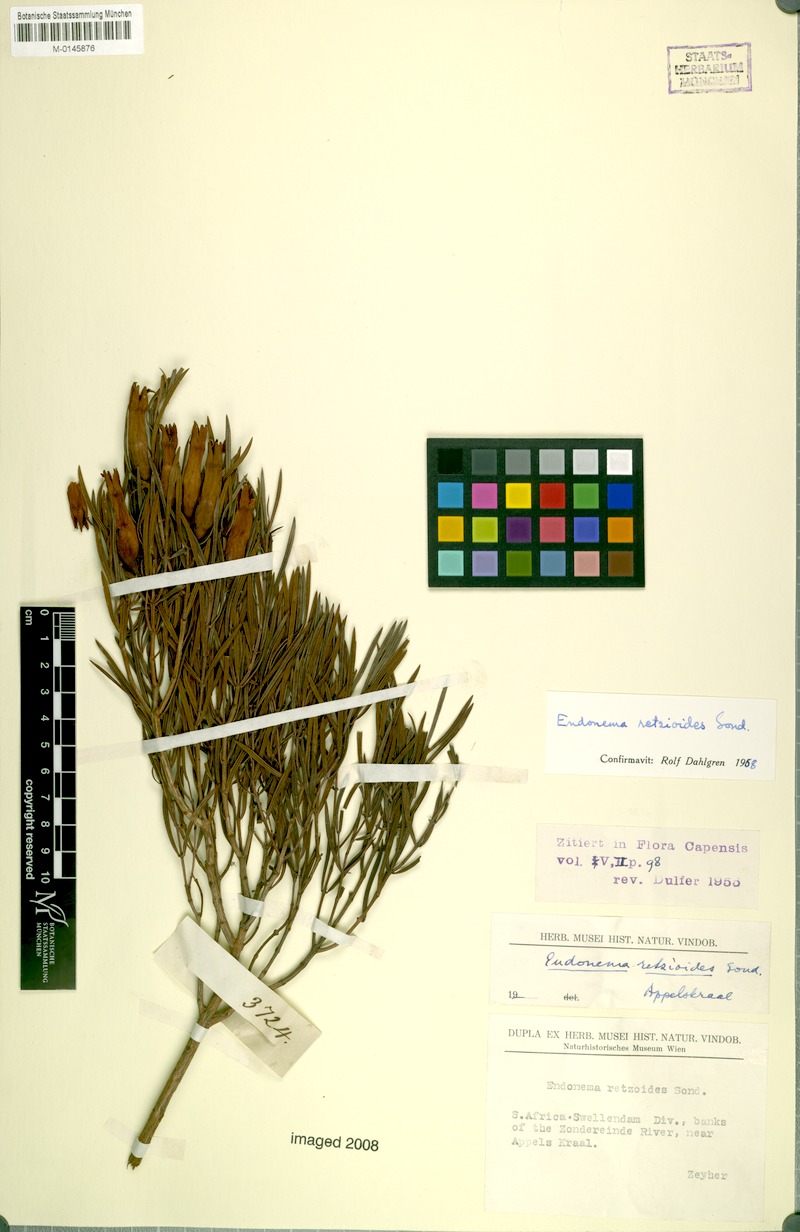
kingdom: Plantae
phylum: Tracheophyta
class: Magnoliopsida
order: Myrtales
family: Penaeaceae
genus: Endonema
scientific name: Endonema retzioides
